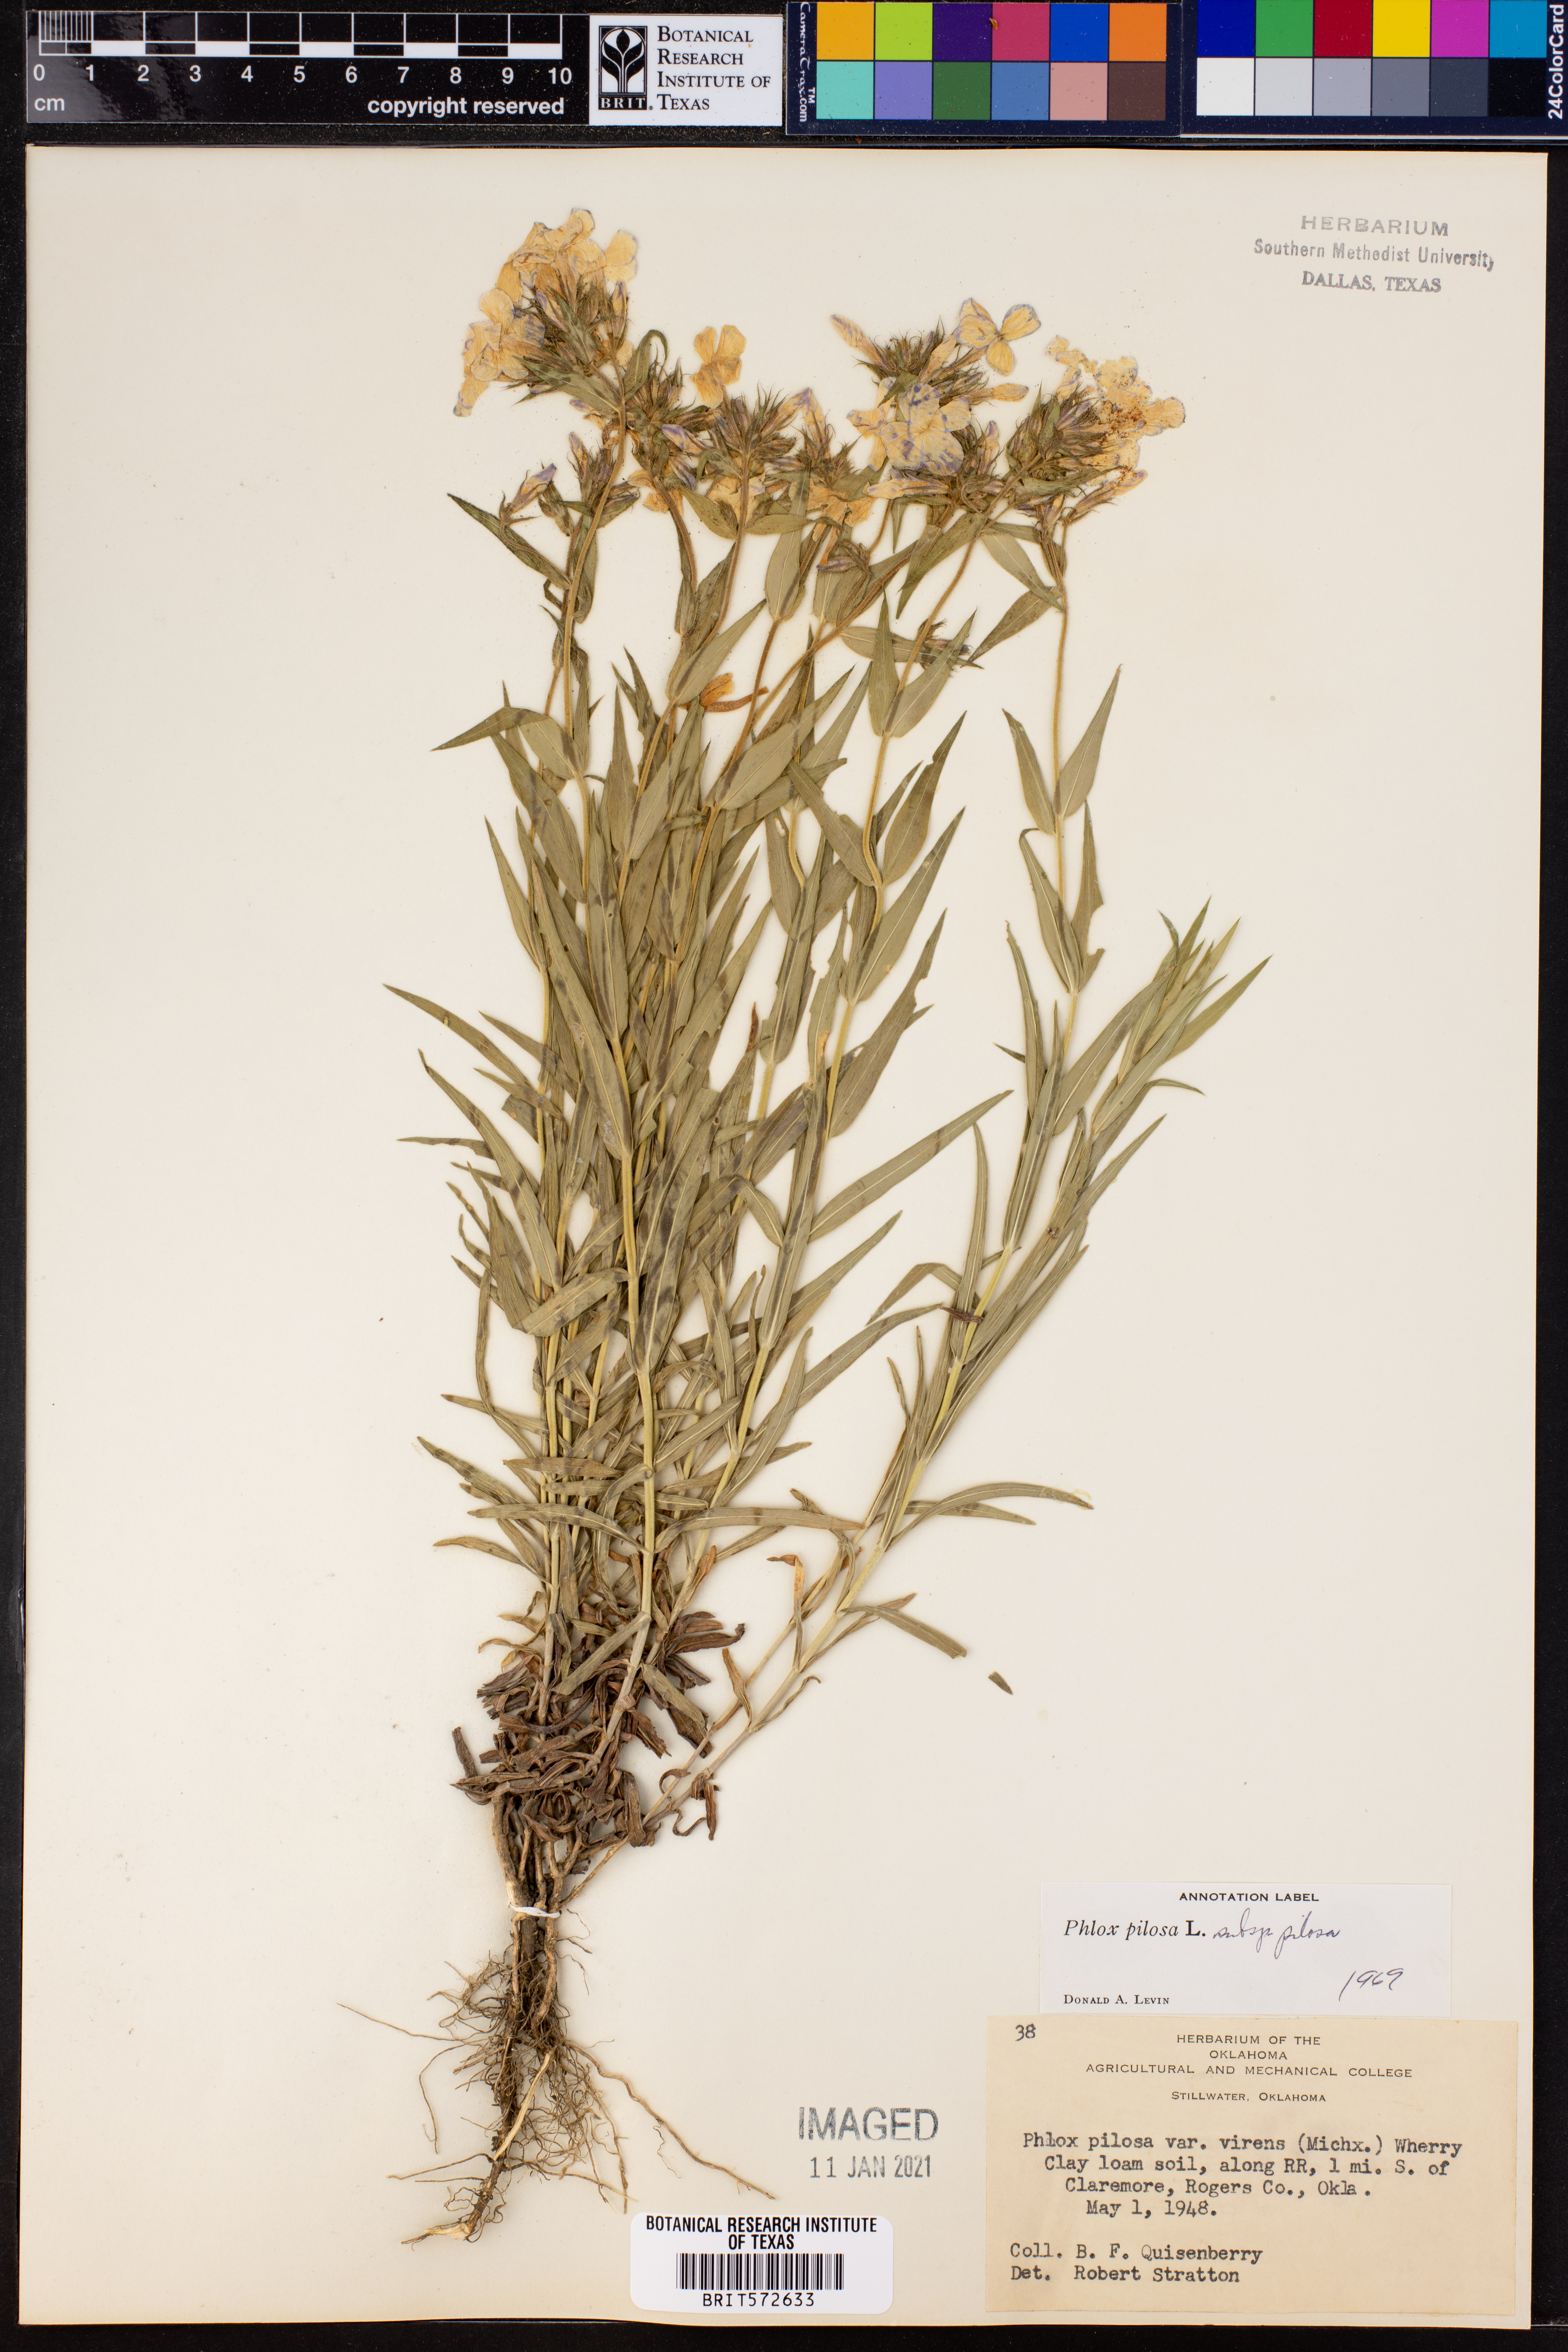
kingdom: Plantae
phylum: Tracheophyta
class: Magnoliopsida
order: Ericales
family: Polemoniaceae
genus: Phlox
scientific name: Phlox pilosa
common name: Prairie phlox
